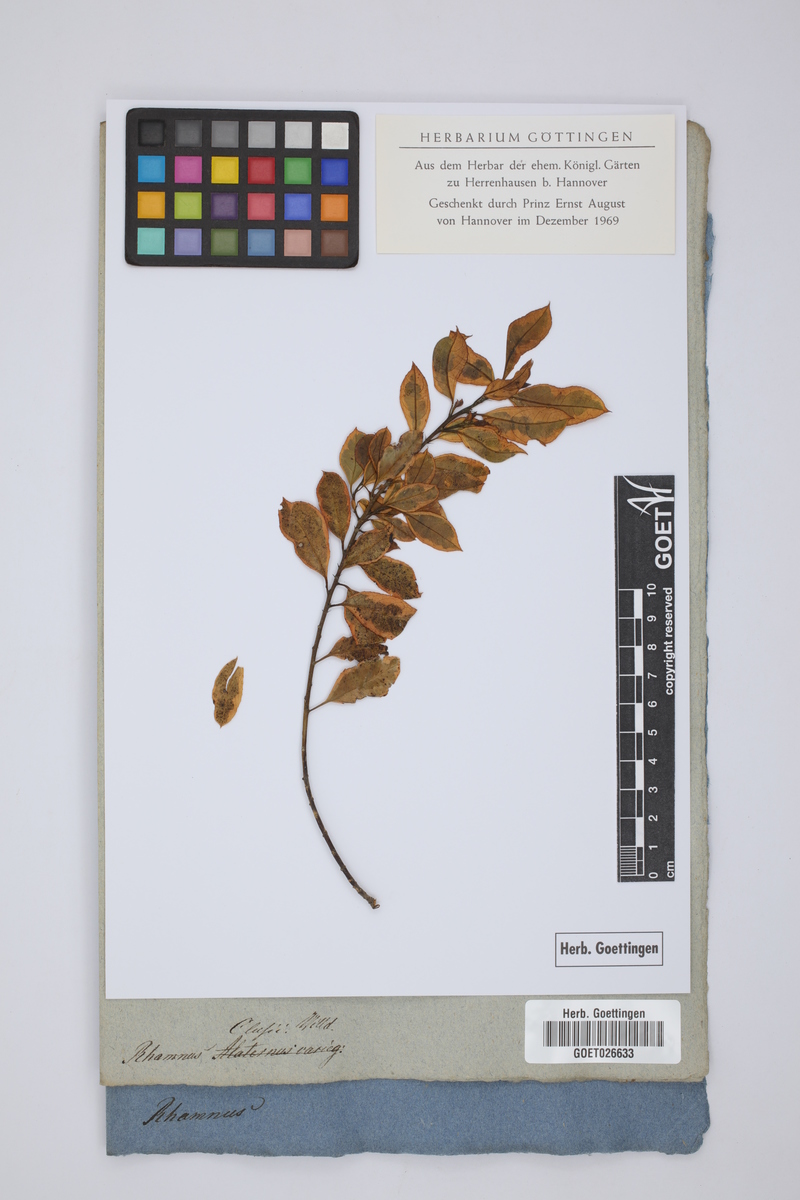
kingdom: Plantae
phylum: Tracheophyta
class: Magnoliopsida
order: Rosales
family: Rhamnaceae
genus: Rhamnus
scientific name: Rhamnus alaternus
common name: Mediterranean buckthorn
